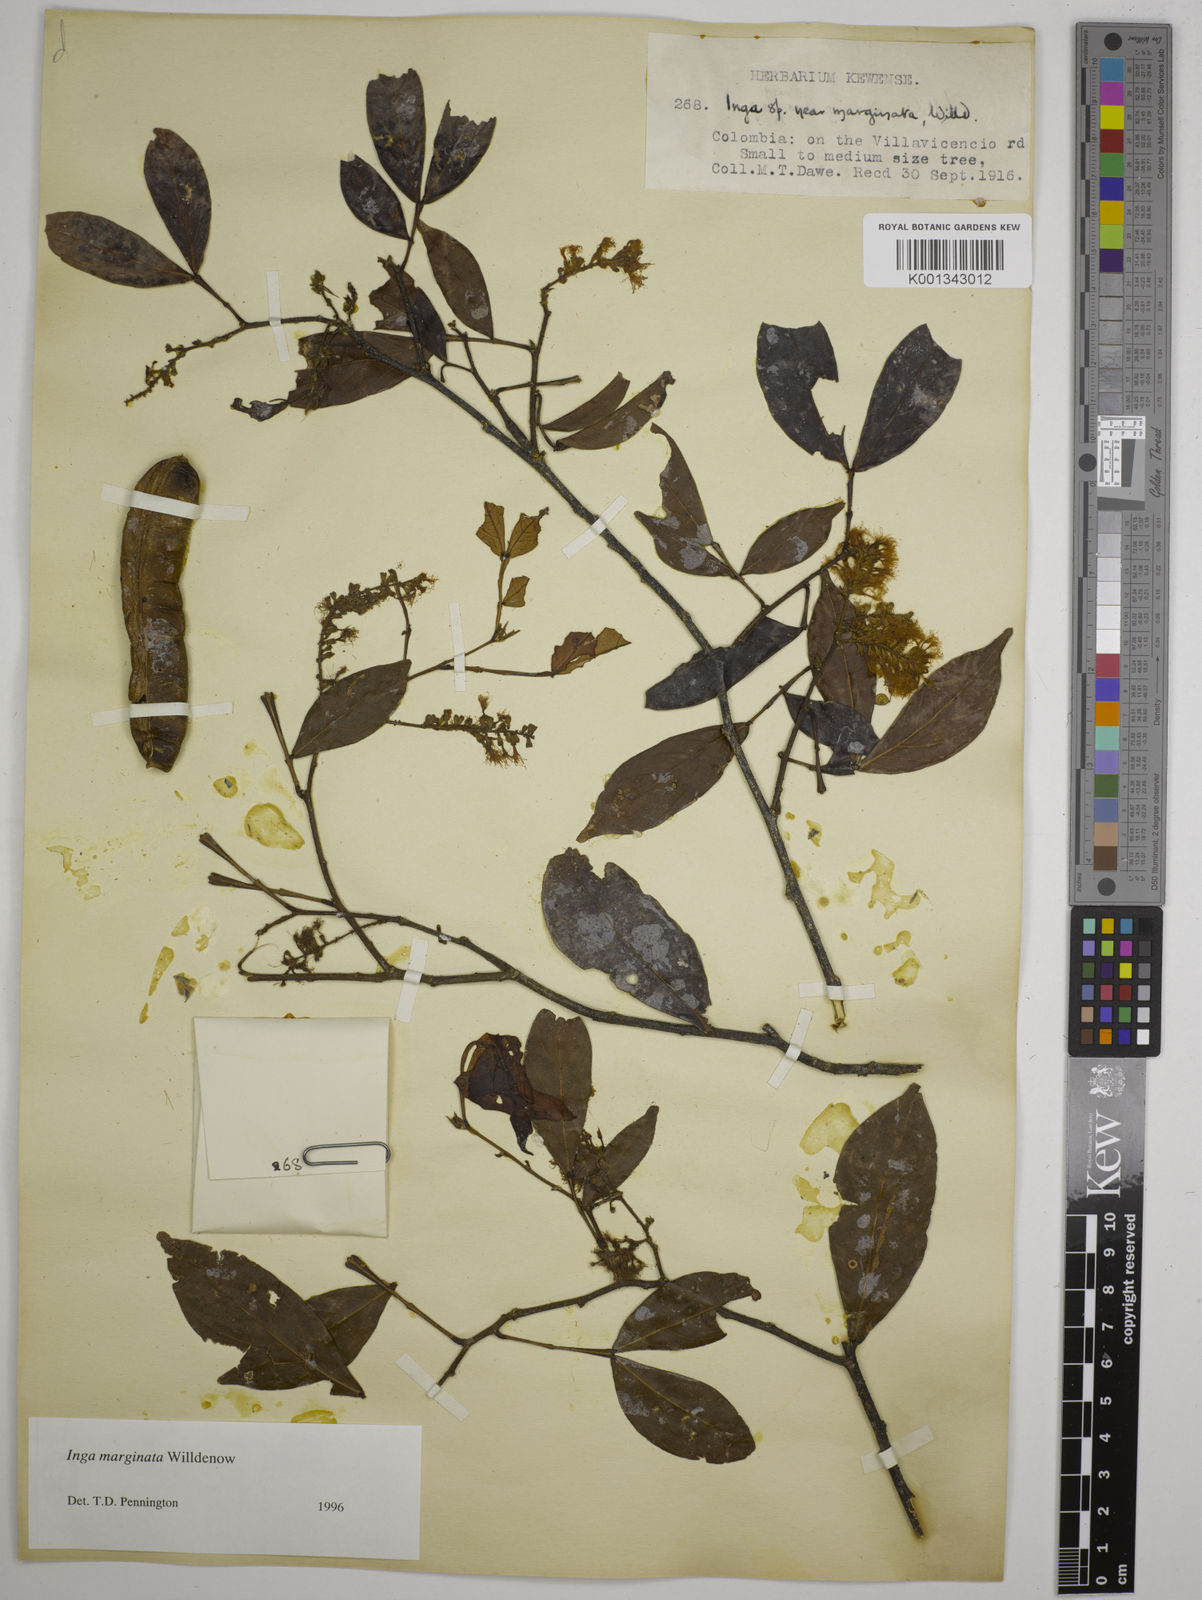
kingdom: Plantae
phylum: Tracheophyta
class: Magnoliopsida
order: Fabales
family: Fabaceae
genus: Inga
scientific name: Inga marginata
